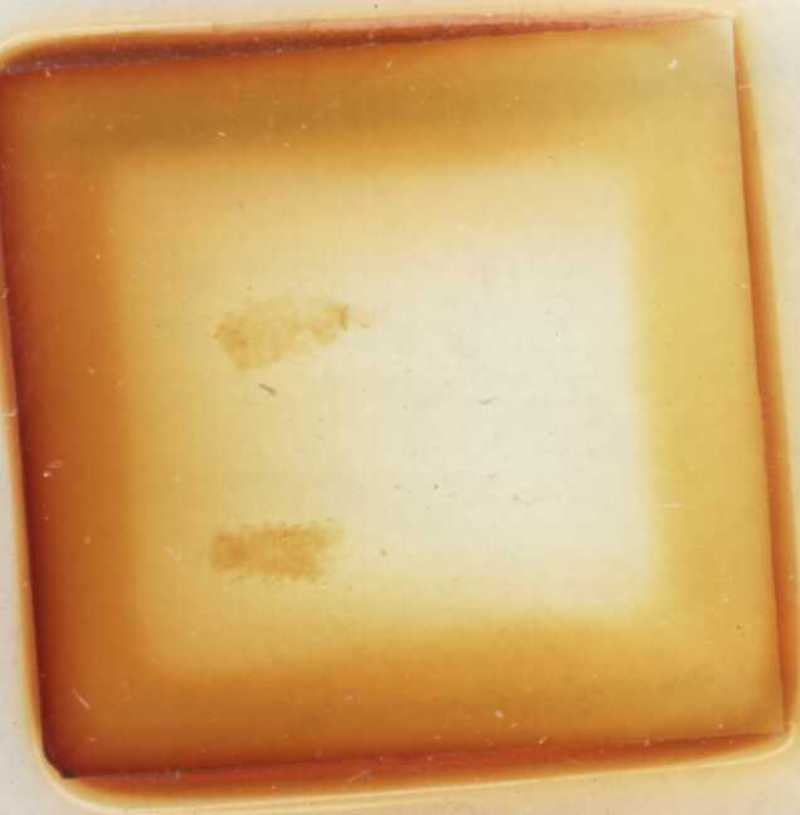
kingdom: Animalia
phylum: Arthropoda
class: Diplopoda
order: Polyxenida
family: Lophoproctidae
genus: Lophoproctus
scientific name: Lophoproctus lucidus
